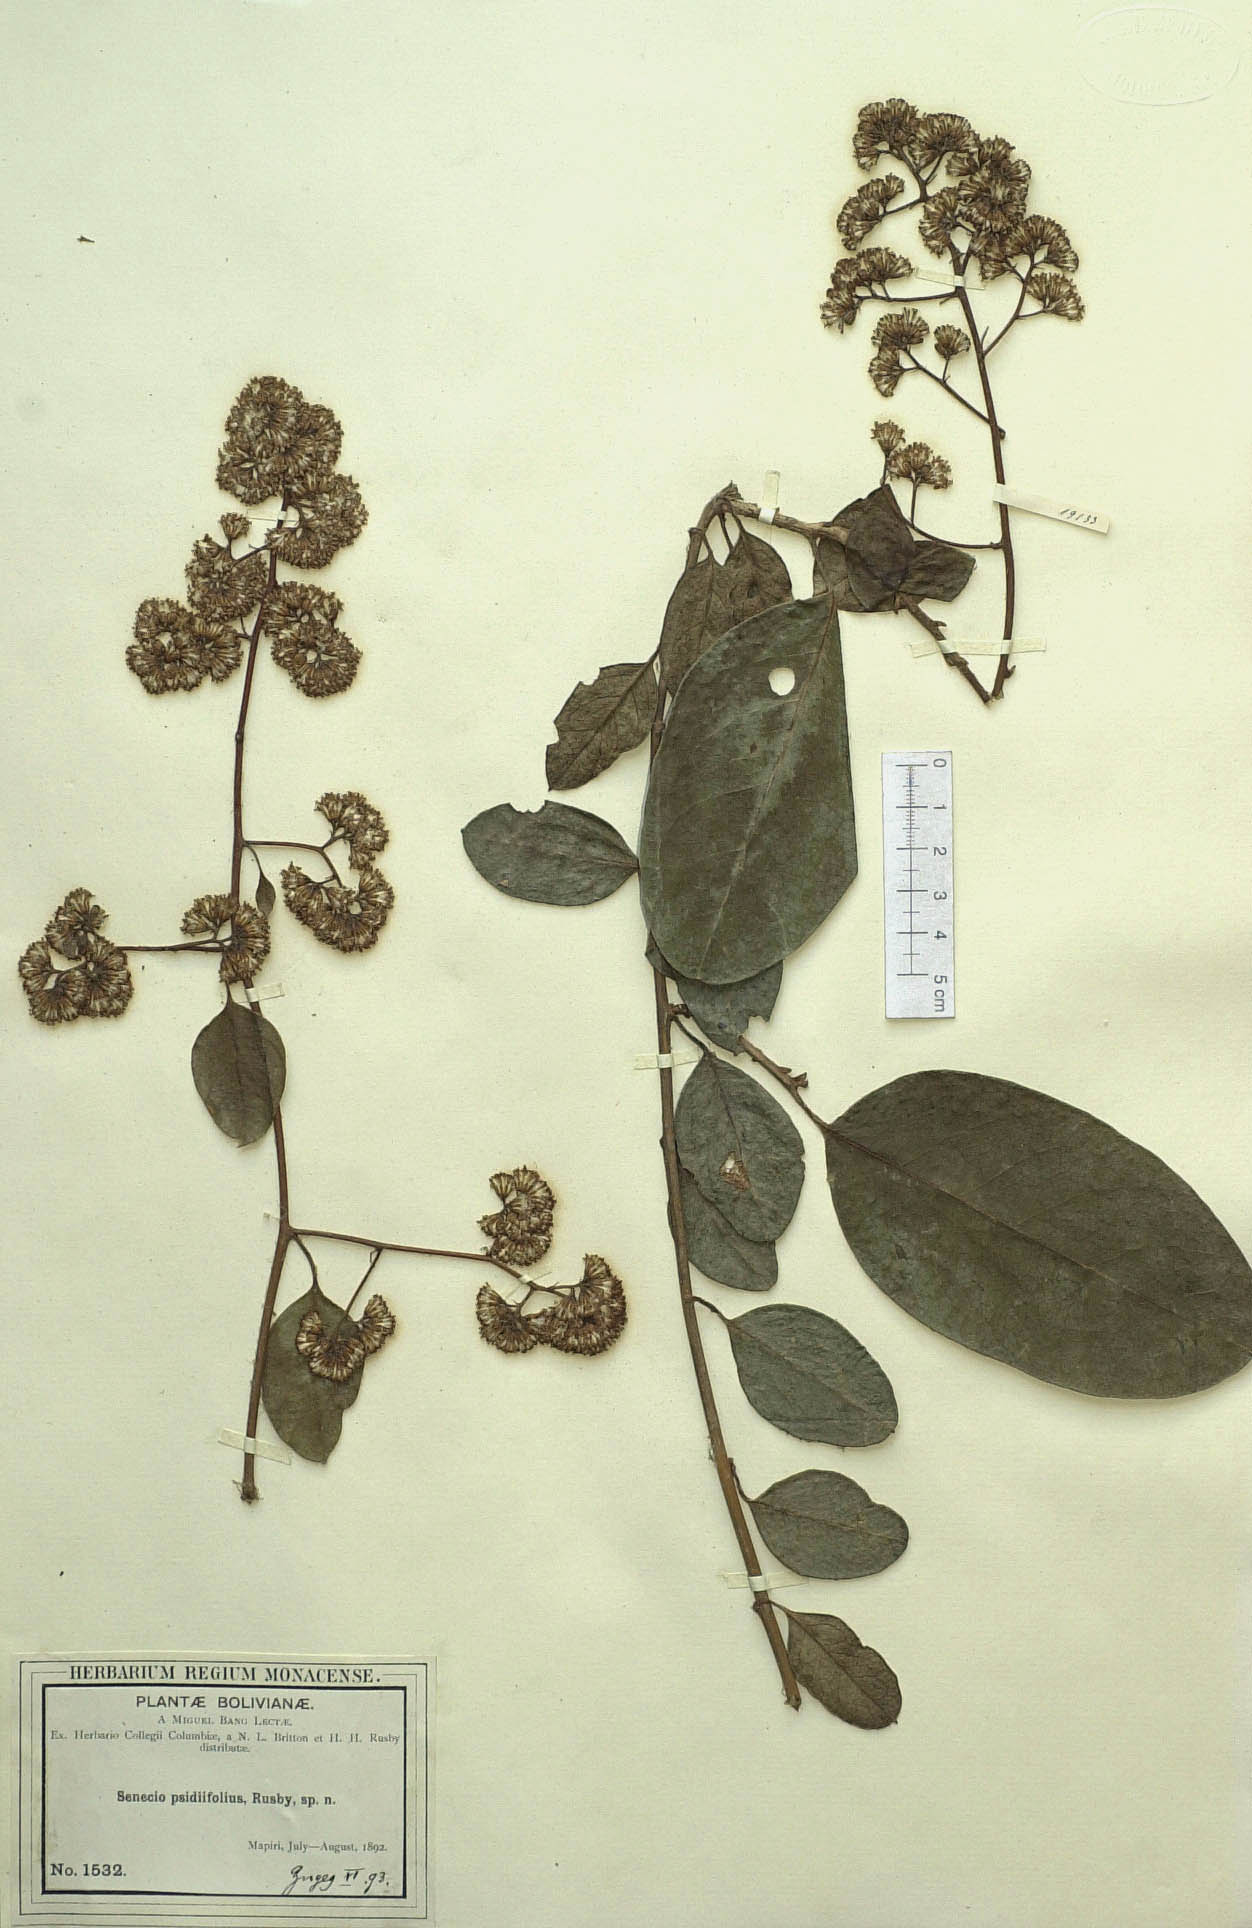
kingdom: Plantae
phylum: Tracheophyta
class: Magnoliopsida
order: Asterales
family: Asteraceae
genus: Pentacalia
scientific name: Pentacalia psidiifolia
